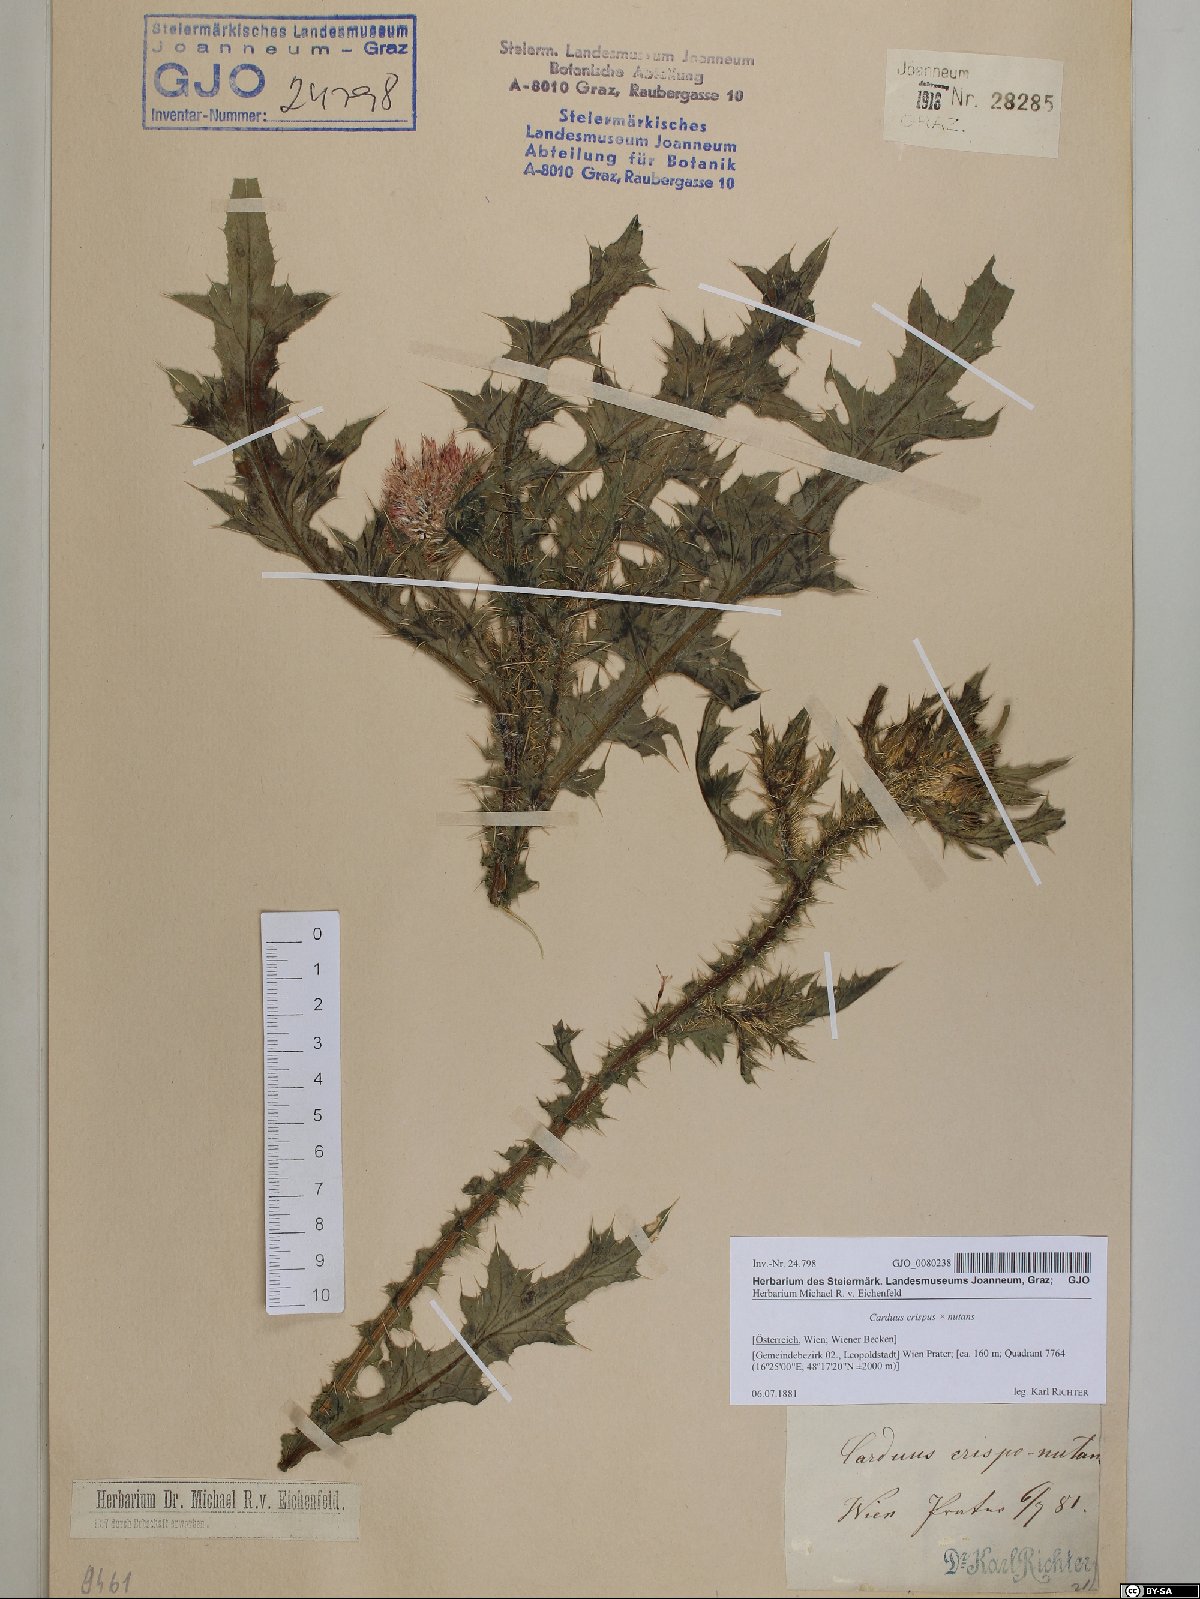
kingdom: Plantae
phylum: Tracheophyta
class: Magnoliopsida
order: Asterales
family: Asteraceae
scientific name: Asteraceae
